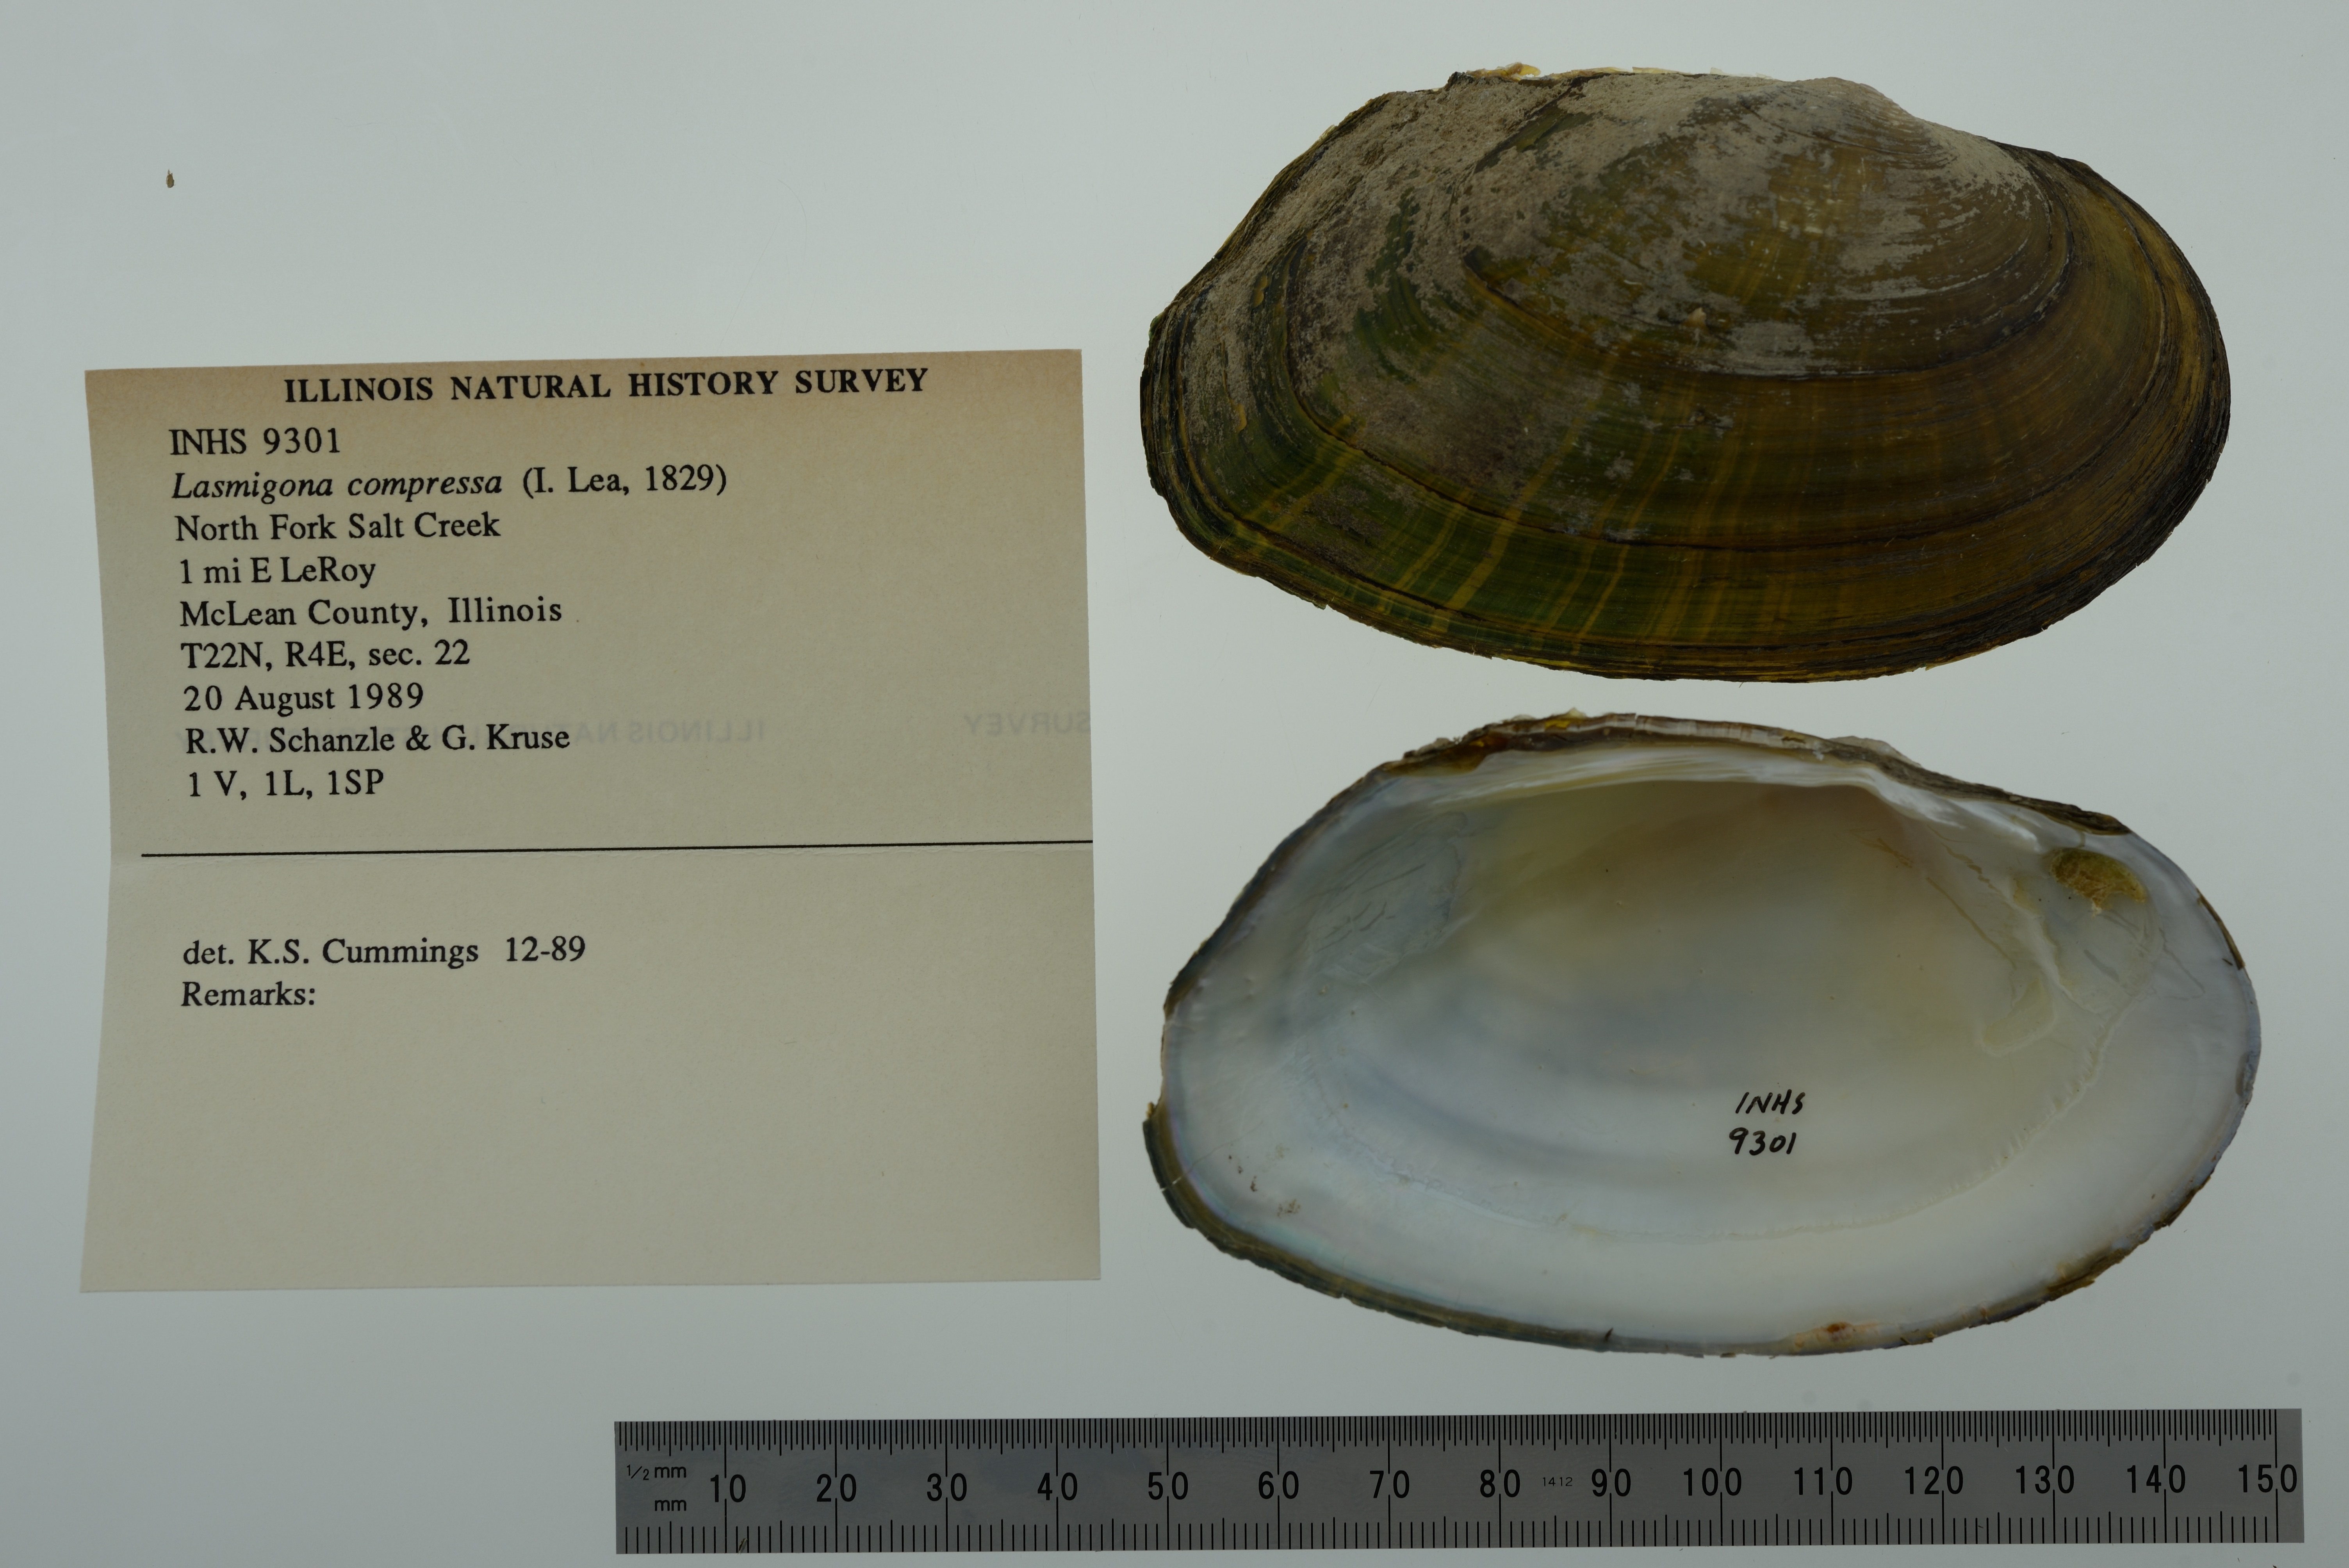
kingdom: Animalia
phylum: Mollusca
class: Bivalvia
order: Unionida
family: Unionidae
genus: Lasmigona
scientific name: Lasmigona compressa
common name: Creek heelsplitter
